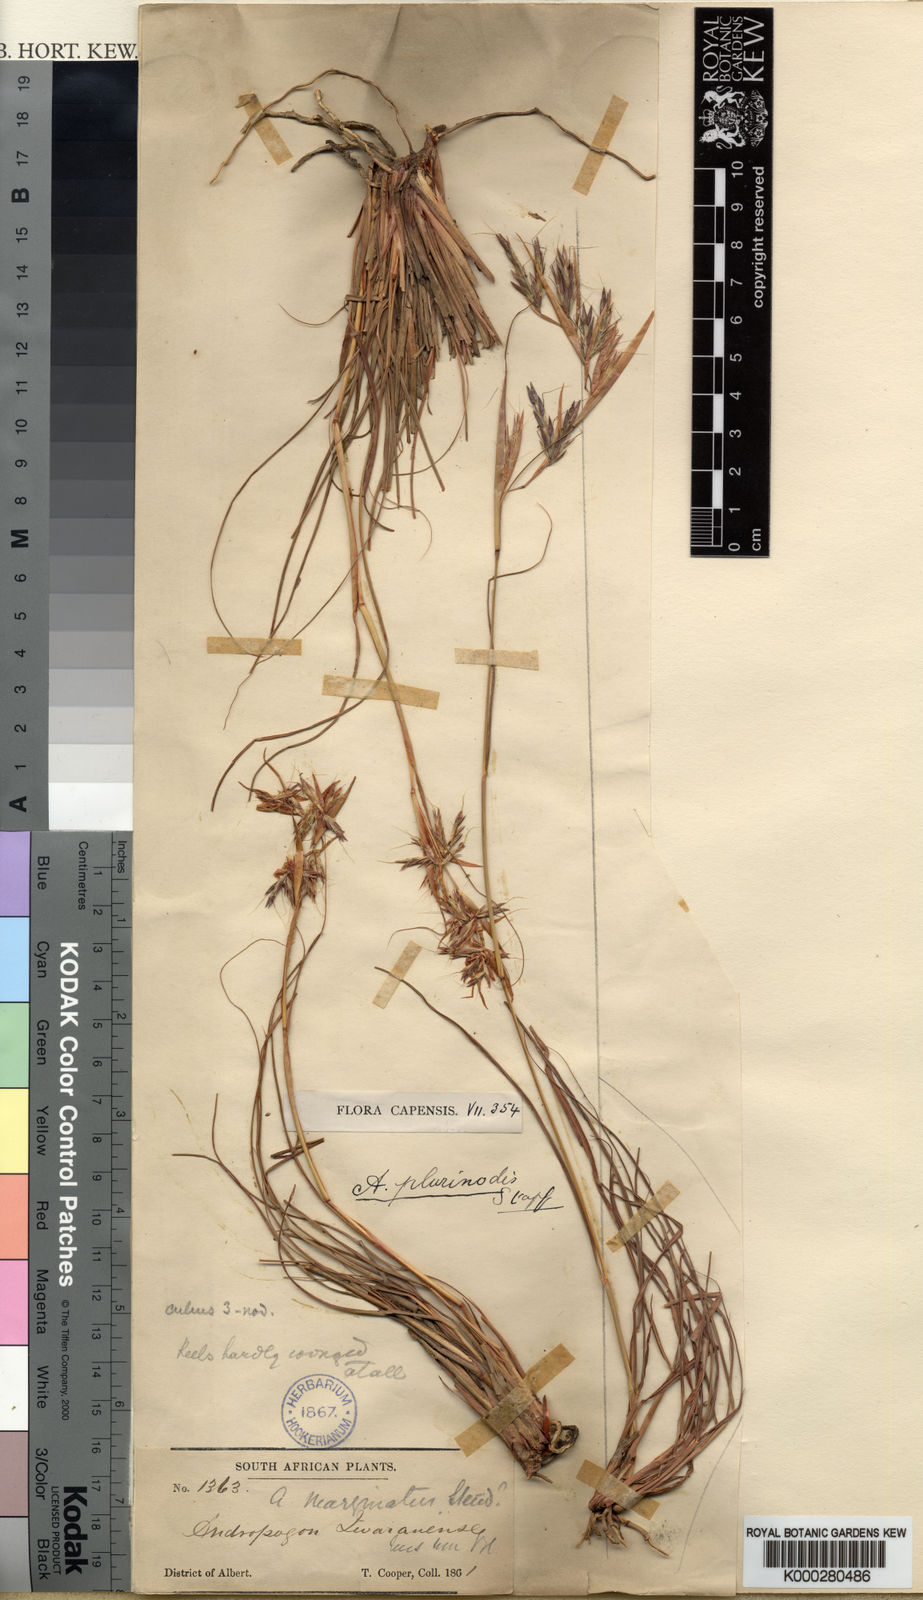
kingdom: Plantae
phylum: Tracheophyta
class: Liliopsida
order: Poales
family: Poaceae
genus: Cymbopogon
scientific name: Cymbopogon pospischilii
